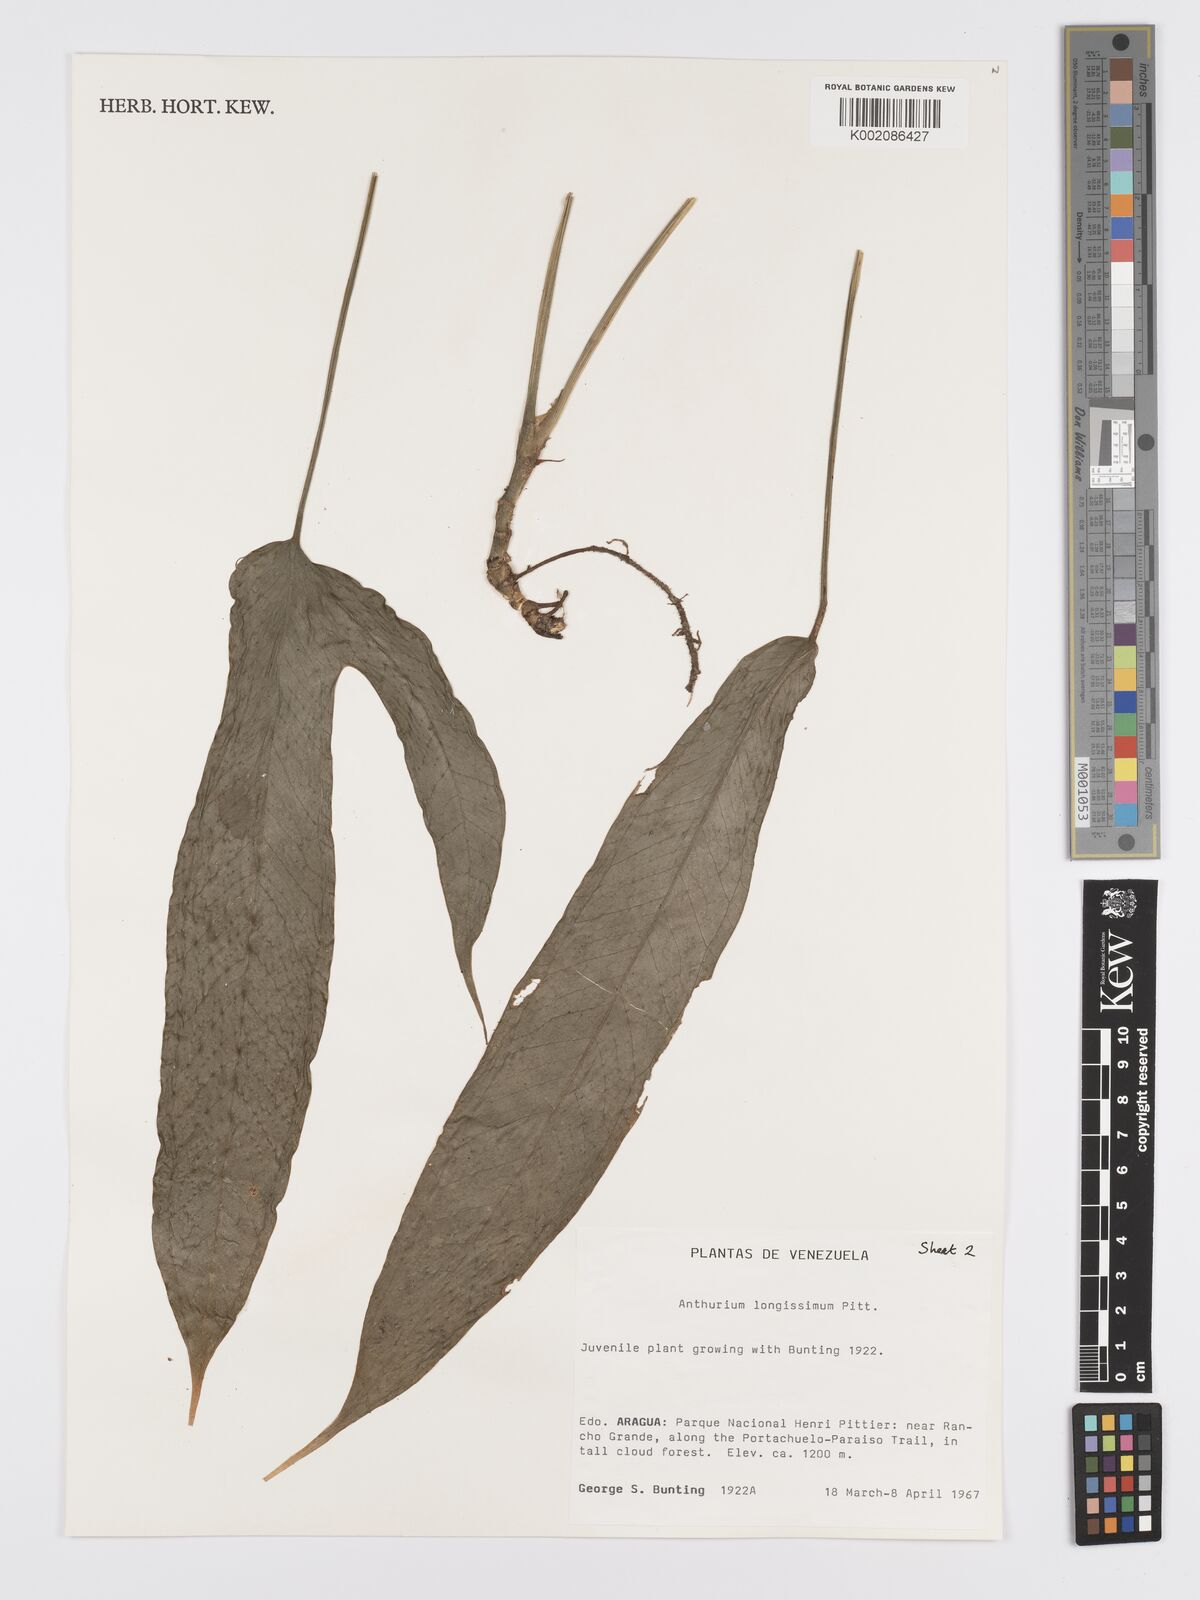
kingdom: Plantae
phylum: Tracheophyta
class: Liliopsida
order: Alismatales
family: Araceae
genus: Anthurium
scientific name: Anthurium longissimum
